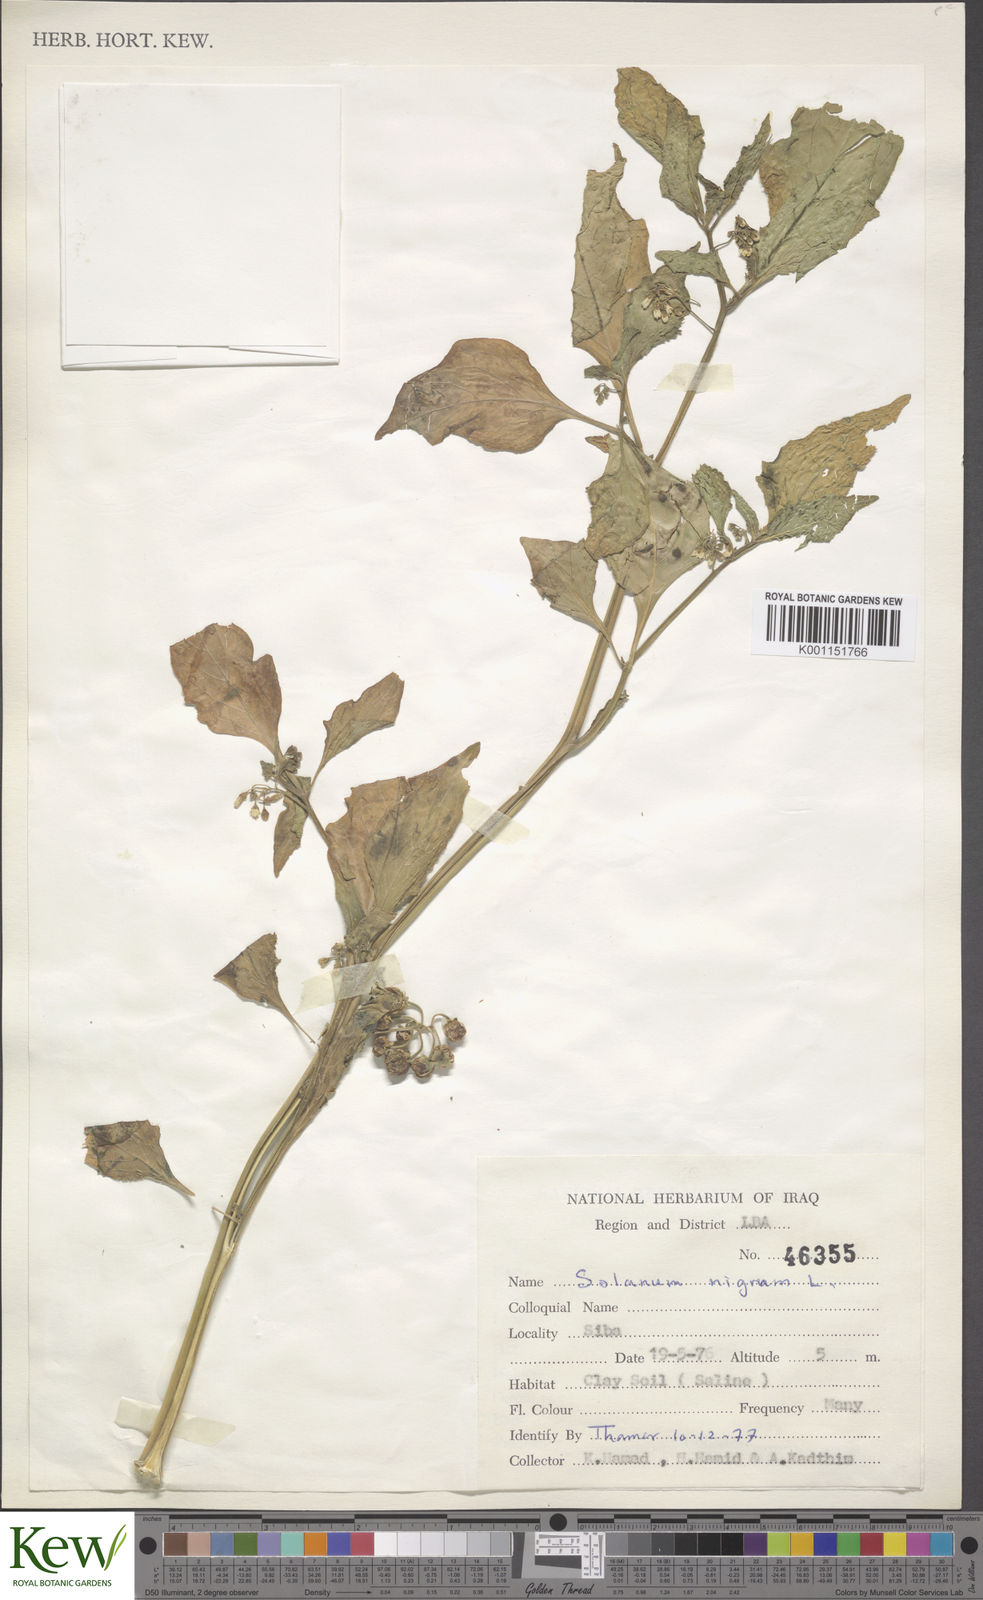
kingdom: Plantae
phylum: Tracheophyta
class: Magnoliopsida
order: Solanales
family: Solanaceae
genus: Solanum
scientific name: Solanum nigrum
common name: Black nightshade
